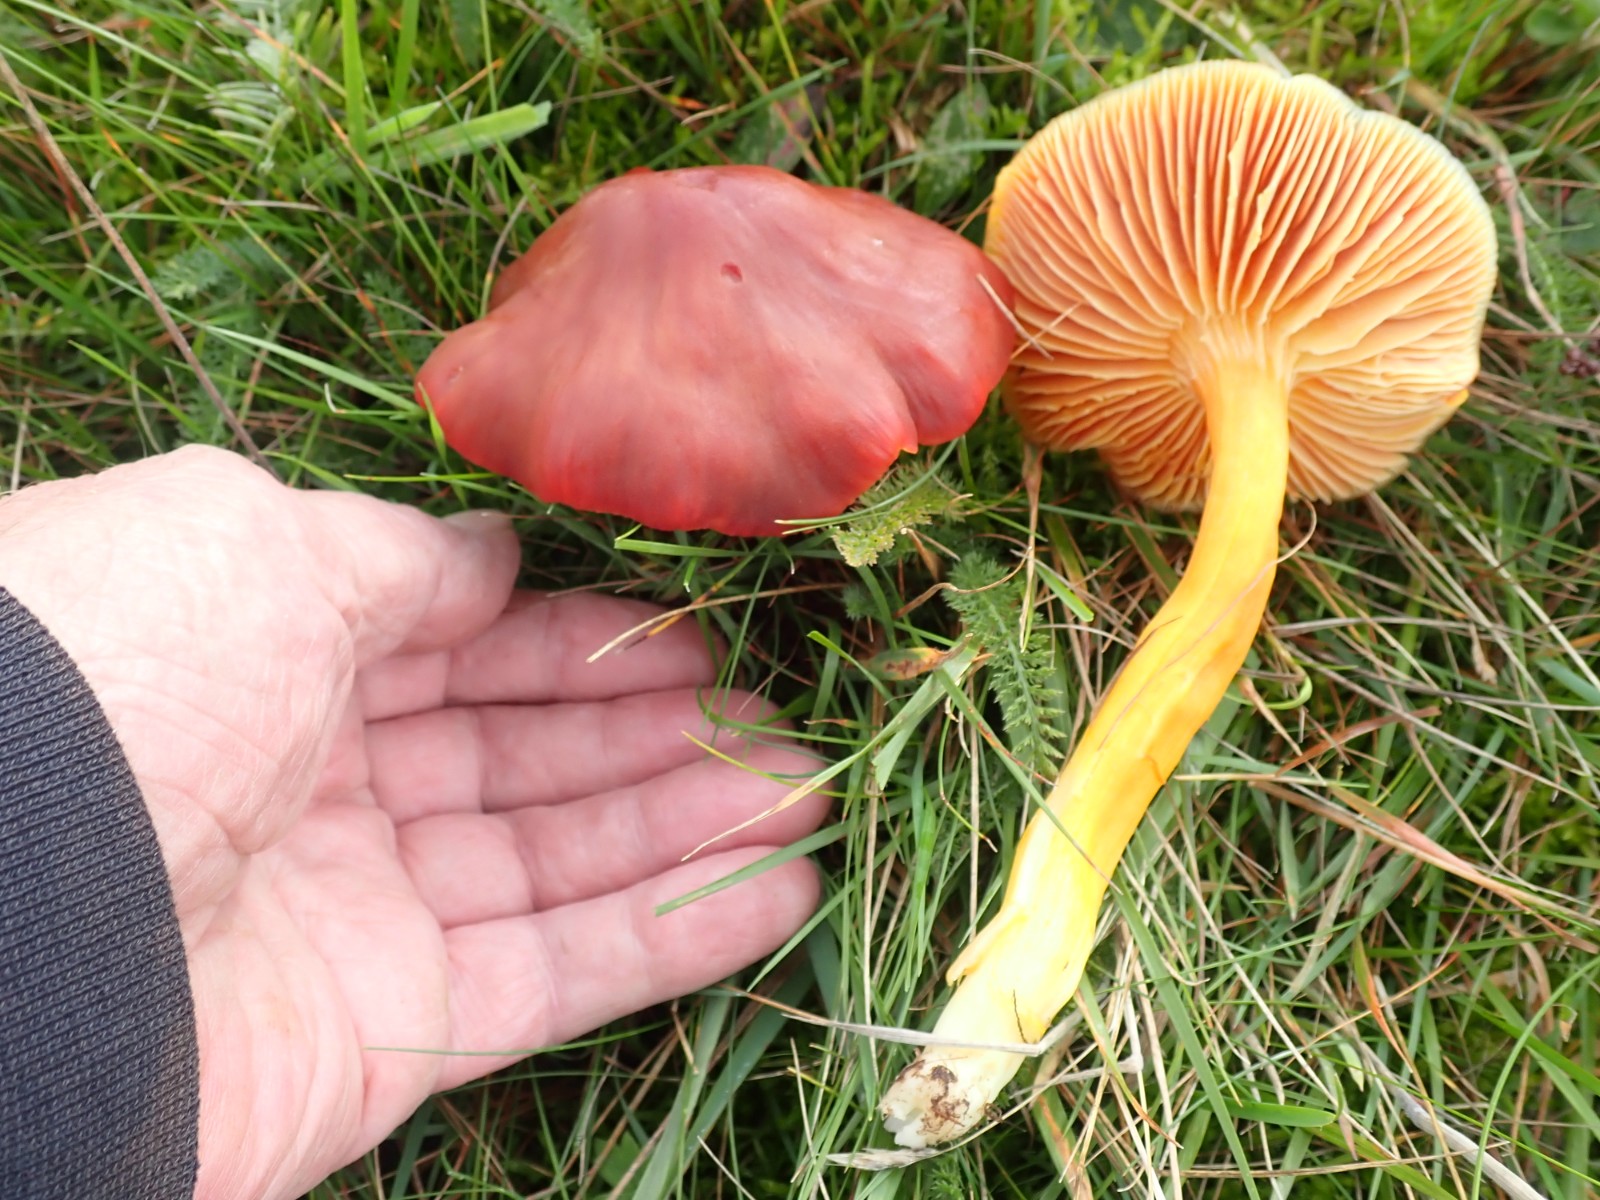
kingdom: Fungi
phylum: Basidiomycota
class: Agaricomycetes
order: Agaricales
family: Hygrophoraceae
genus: Hygrocybe
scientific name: Hygrocybe punicea
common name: skarlagen-vokshat
